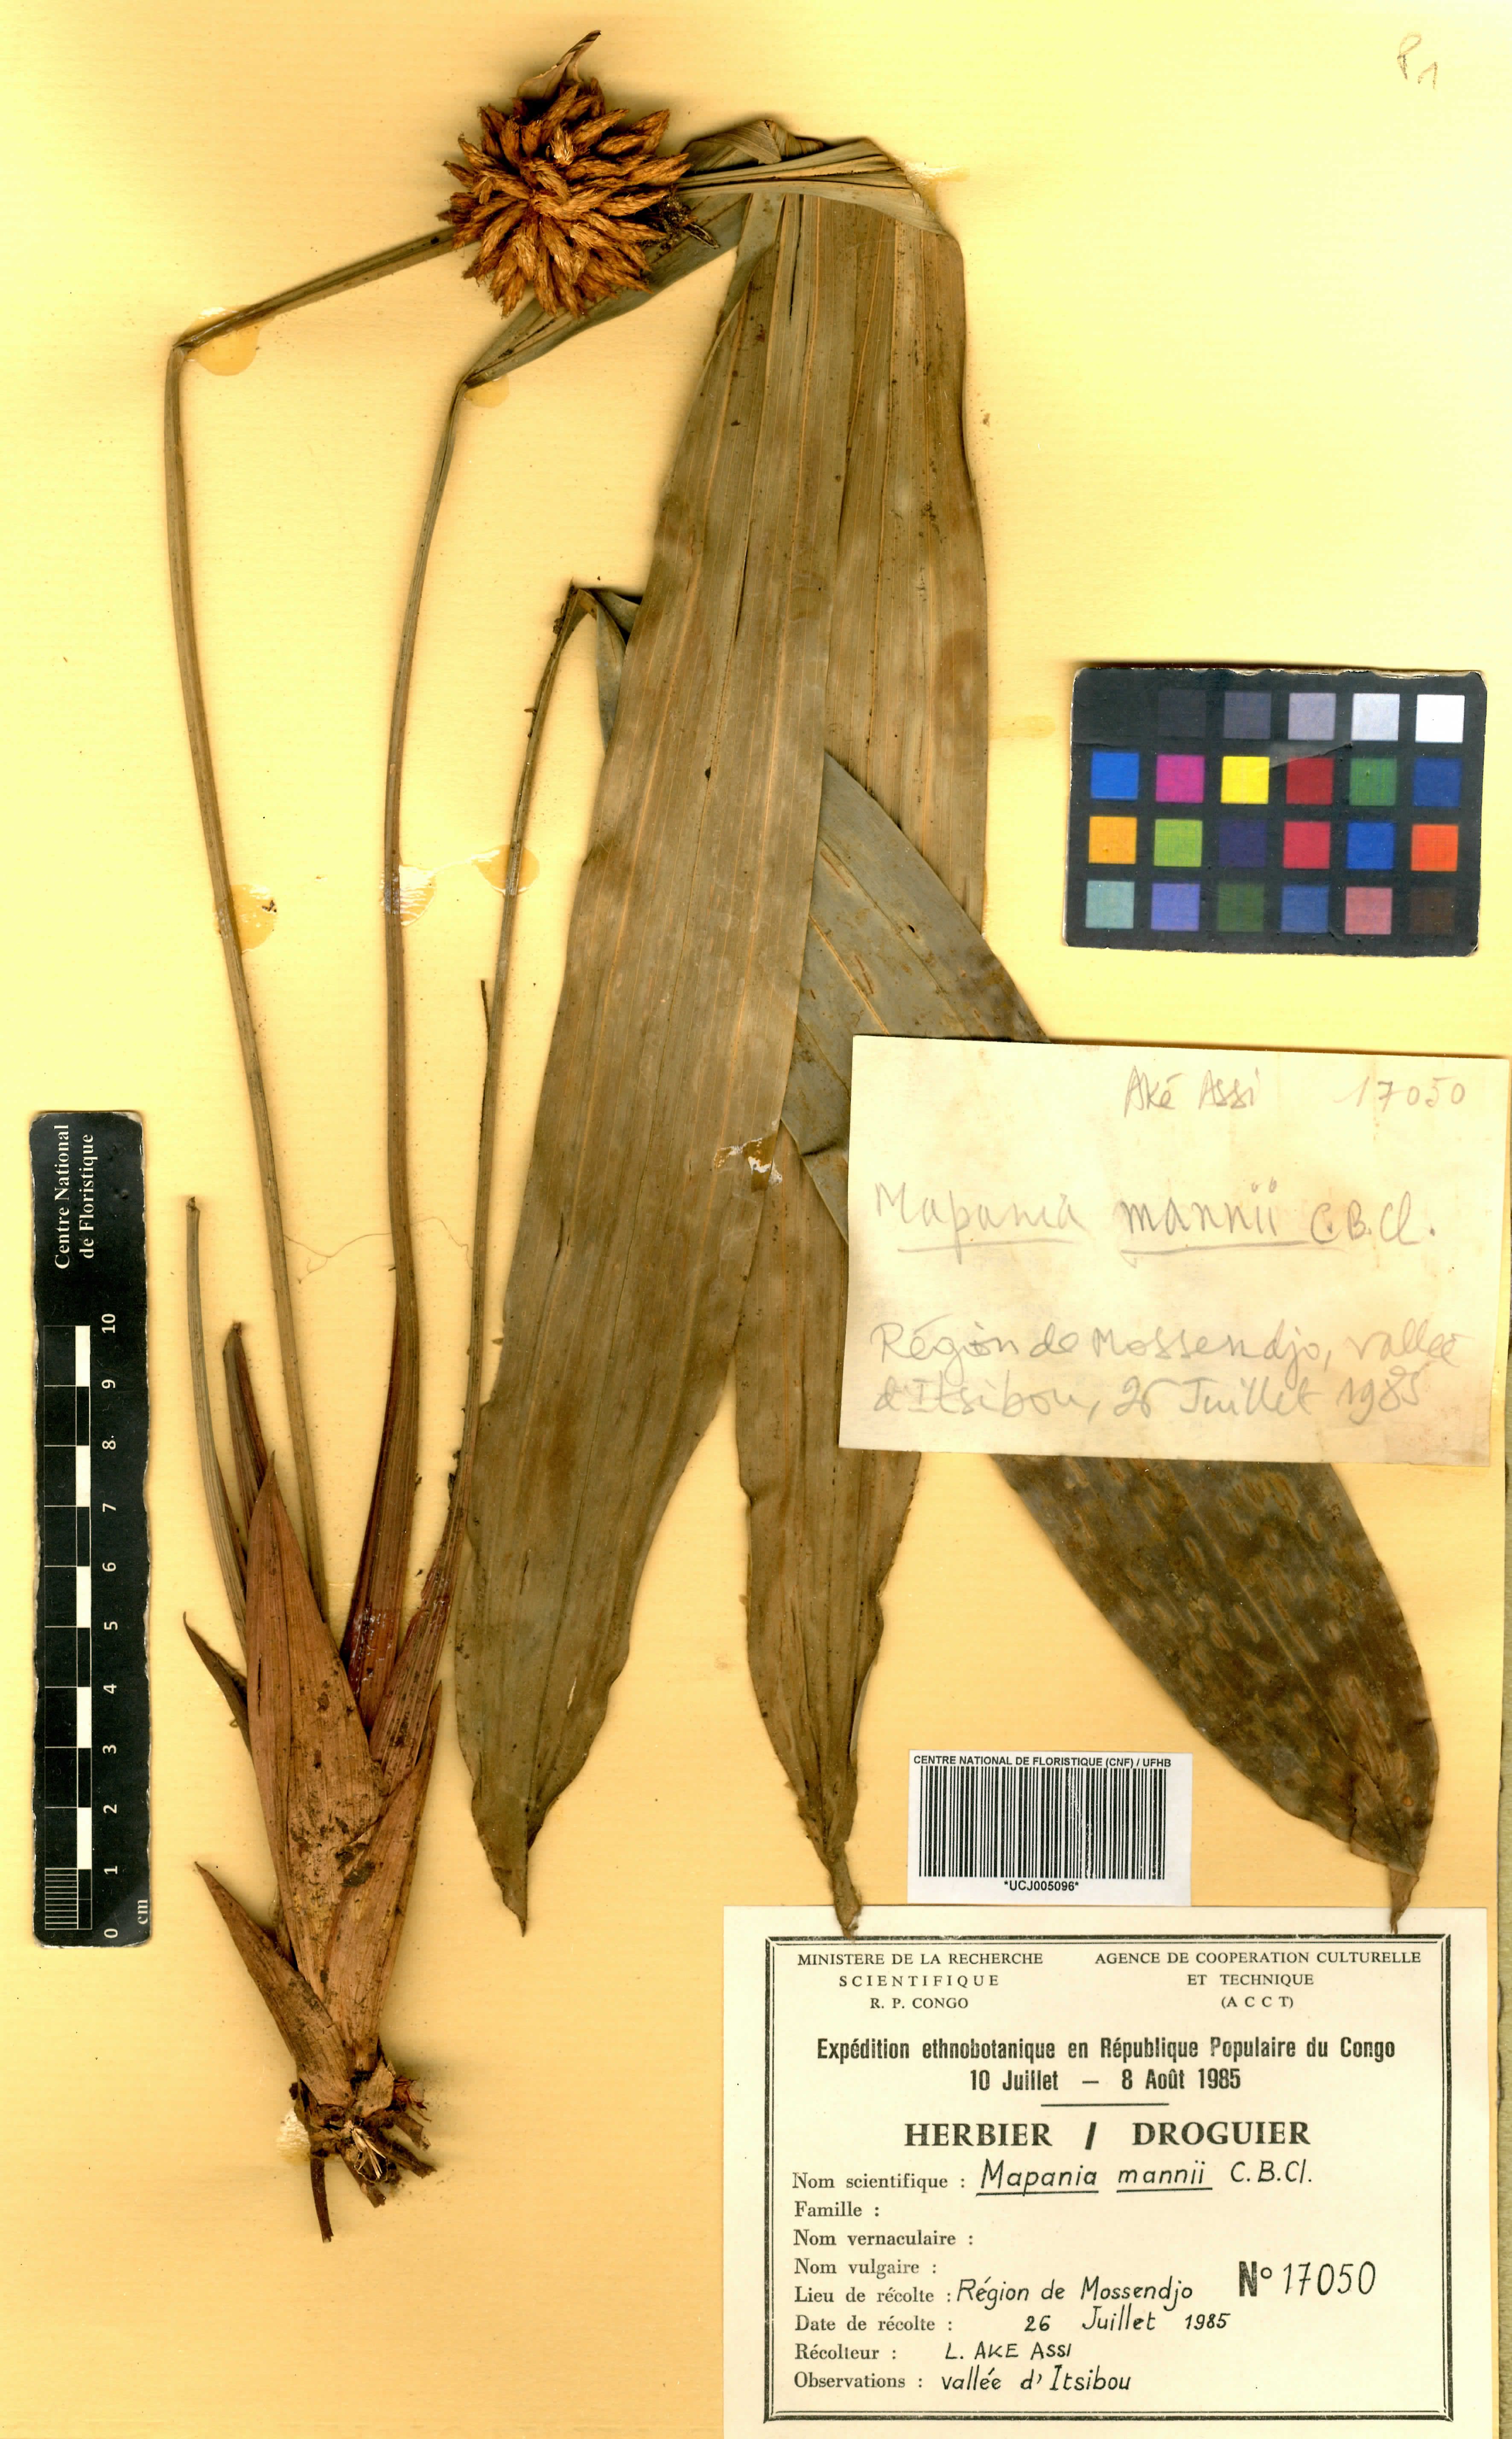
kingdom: Plantae
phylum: Tracheophyta
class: Liliopsida
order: Poales
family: Cyperaceae
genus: Mapania
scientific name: Mapania mannii
